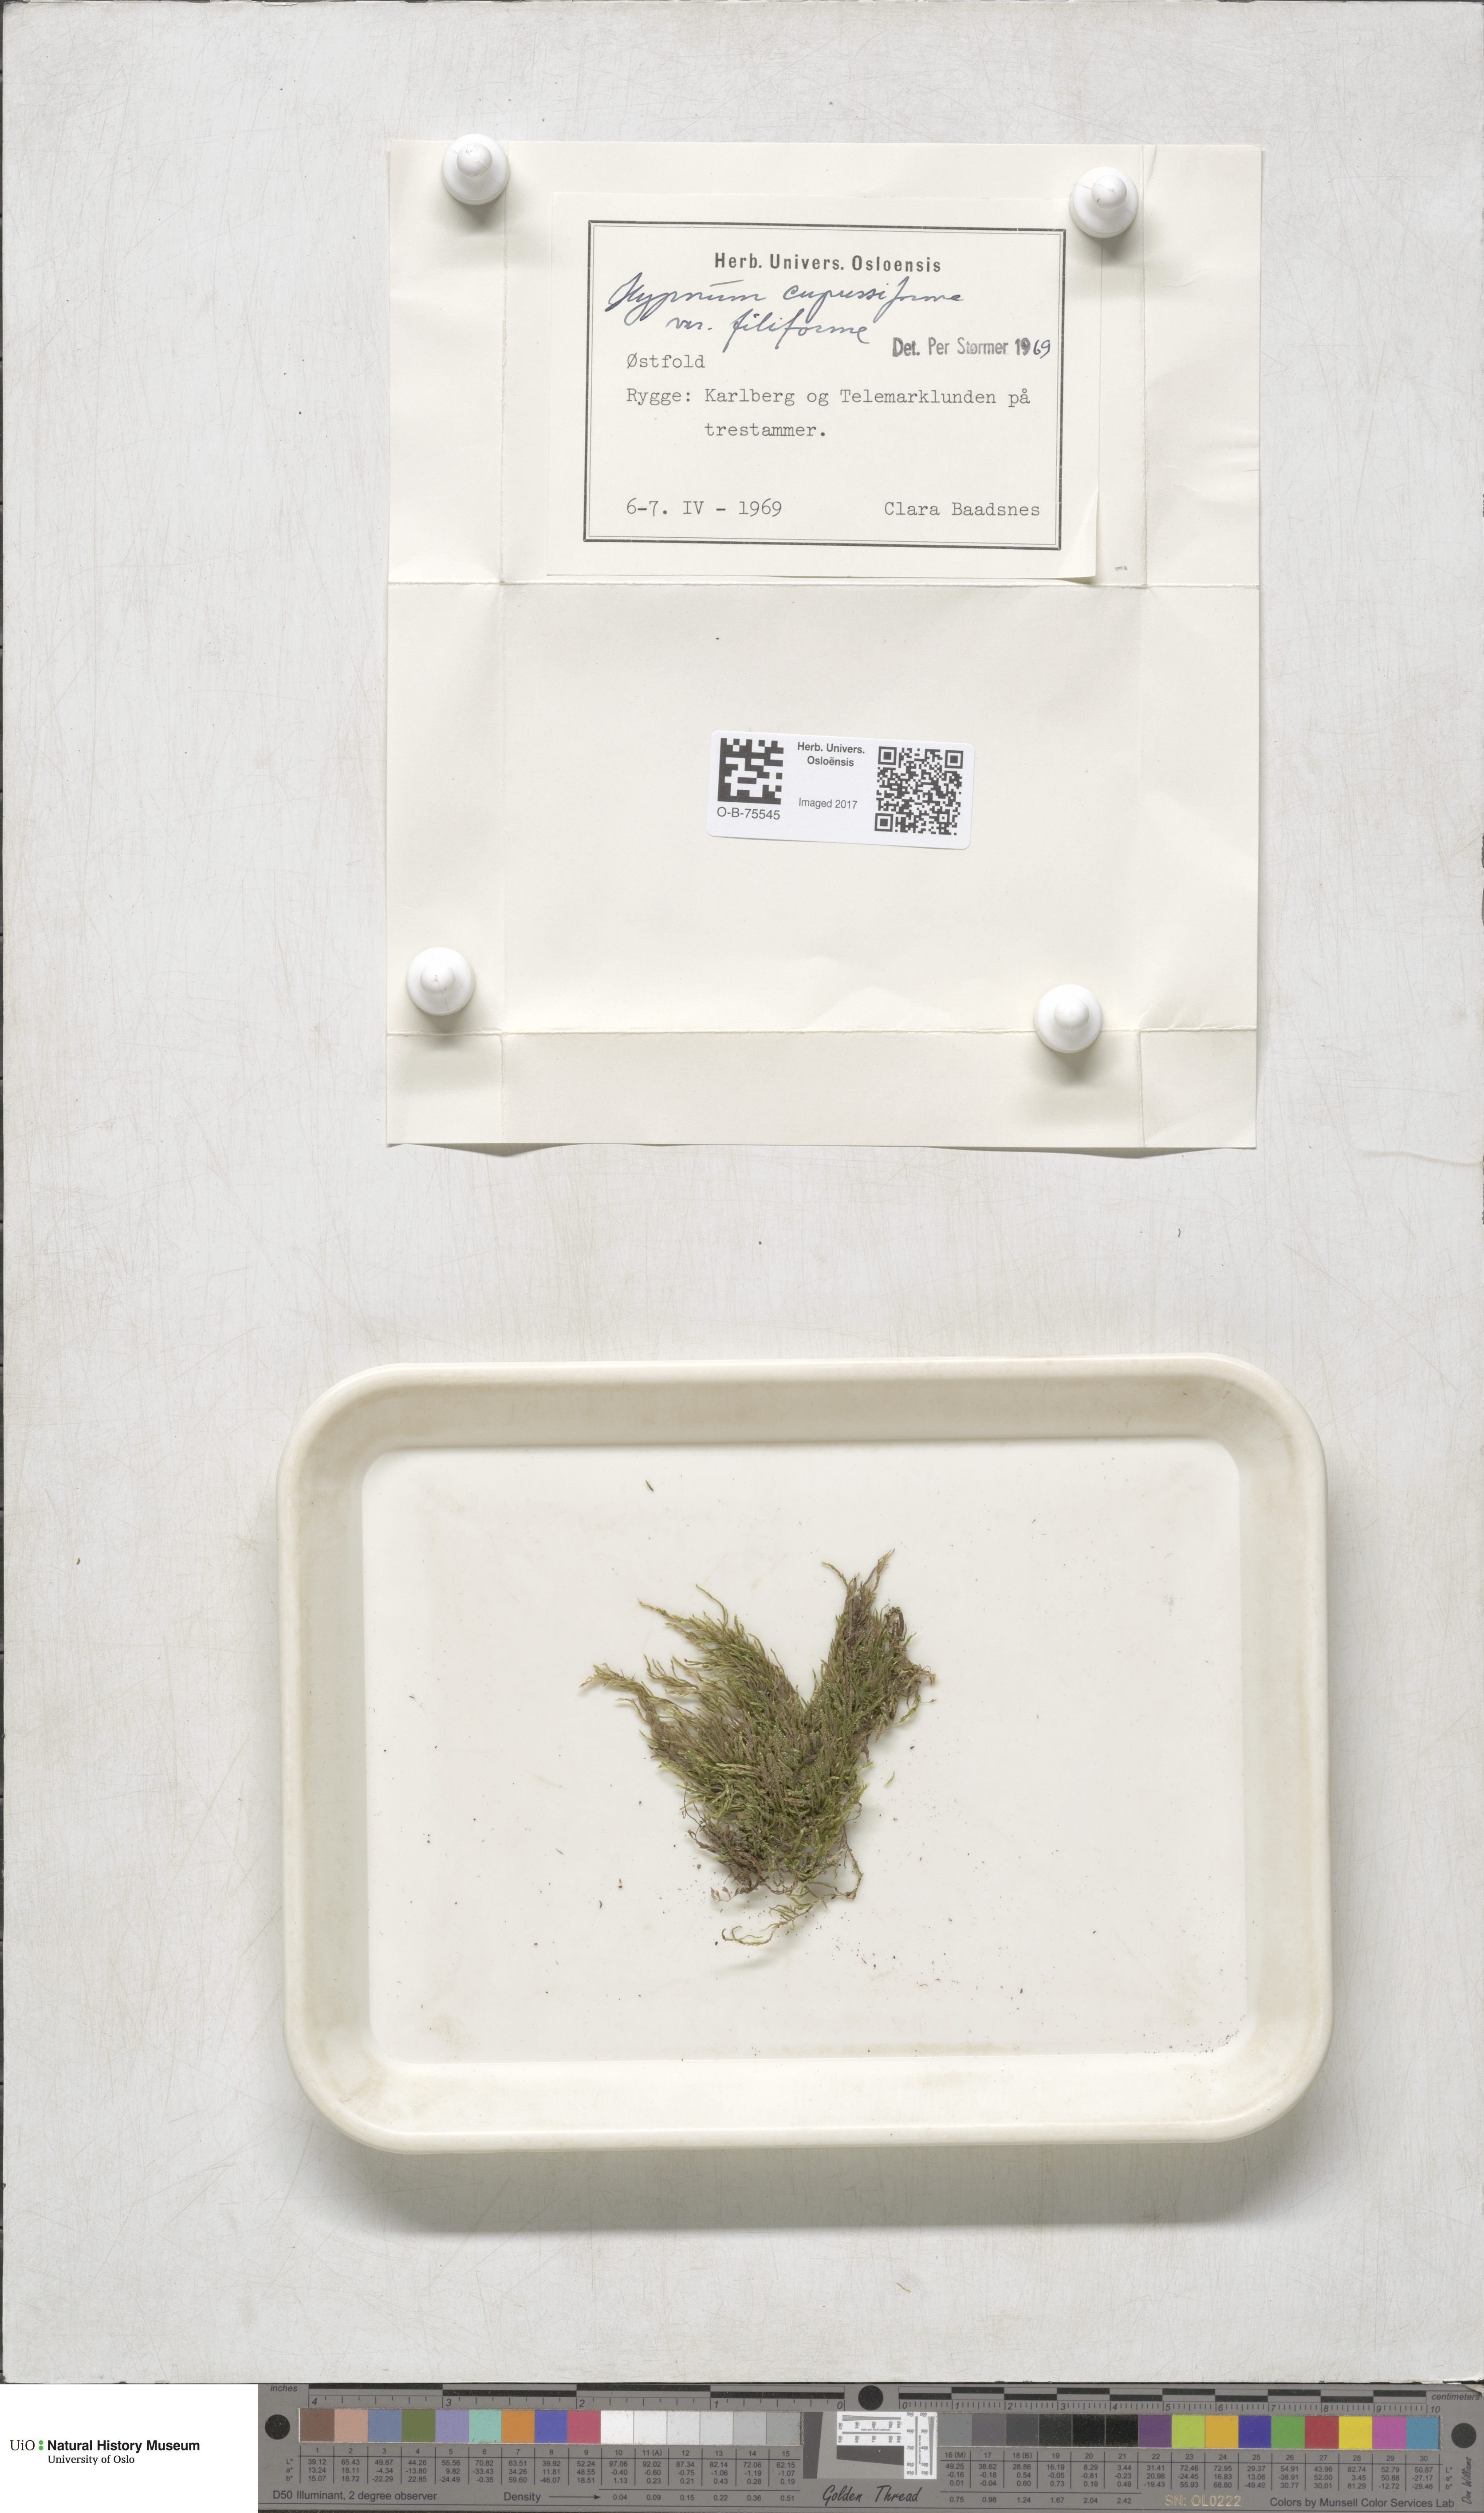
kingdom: Plantae
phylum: Bryophyta
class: Bryopsida
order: Hypnales
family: Hypnaceae
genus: Hypnum
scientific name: Hypnum andoi
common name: Ando's plait moss
